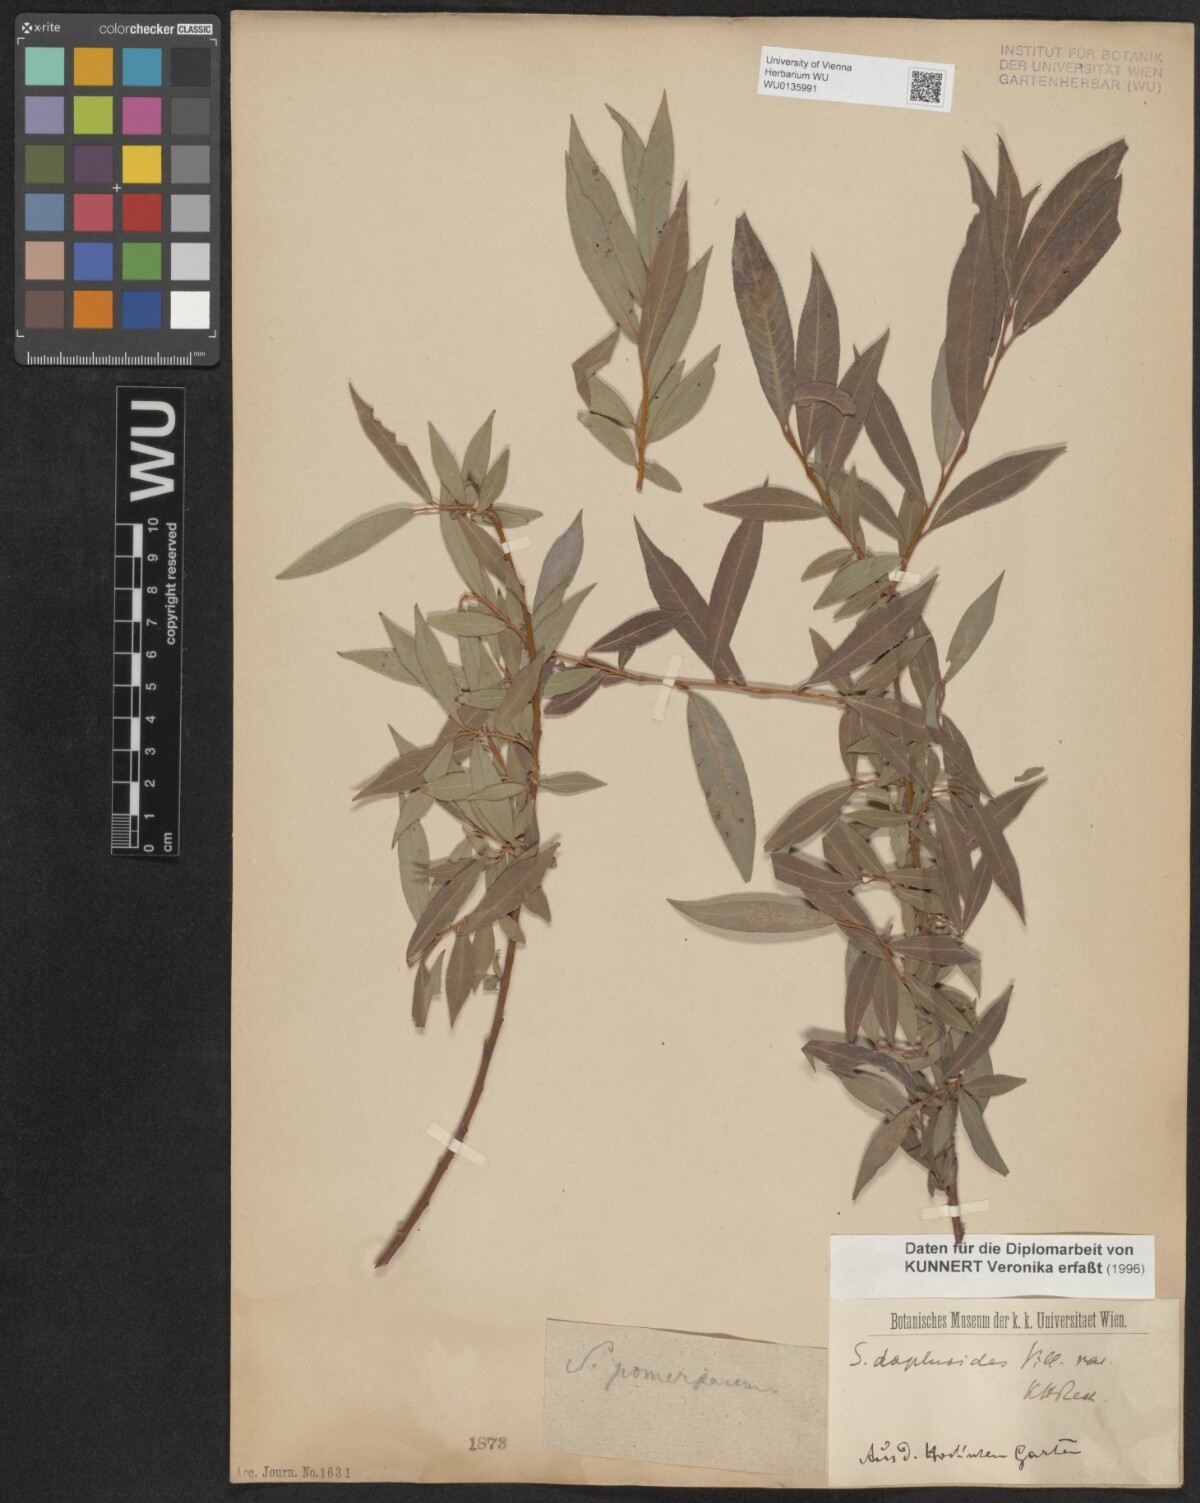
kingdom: Plantae
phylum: Tracheophyta
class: Magnoliopsida
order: Malpighiales
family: Salicaceae
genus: Salix
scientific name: Salix daphnoides
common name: European violet-willow
